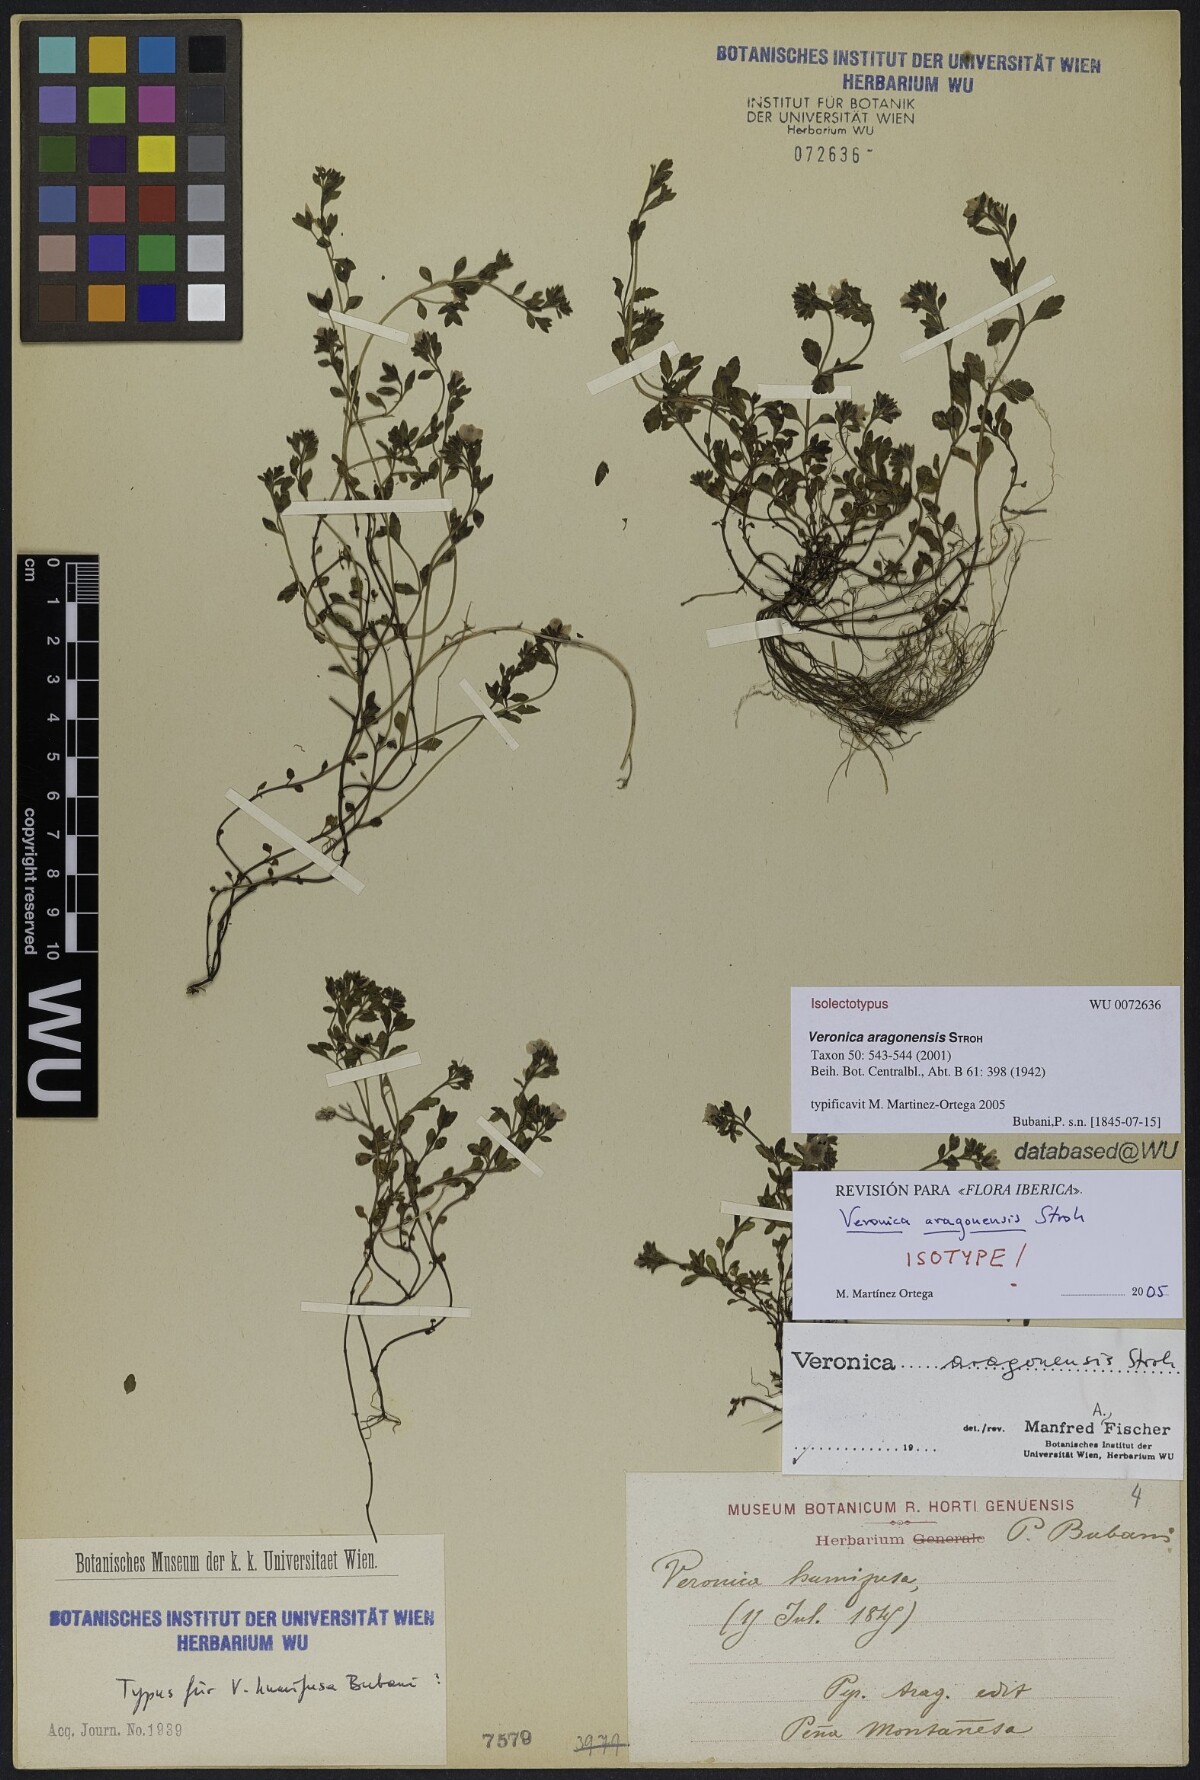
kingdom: Plantae
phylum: Tracheophyta
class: Magnoliopsida
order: Lamiales
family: Plantaginaceae
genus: Veronica
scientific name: Veronica aragonensis
